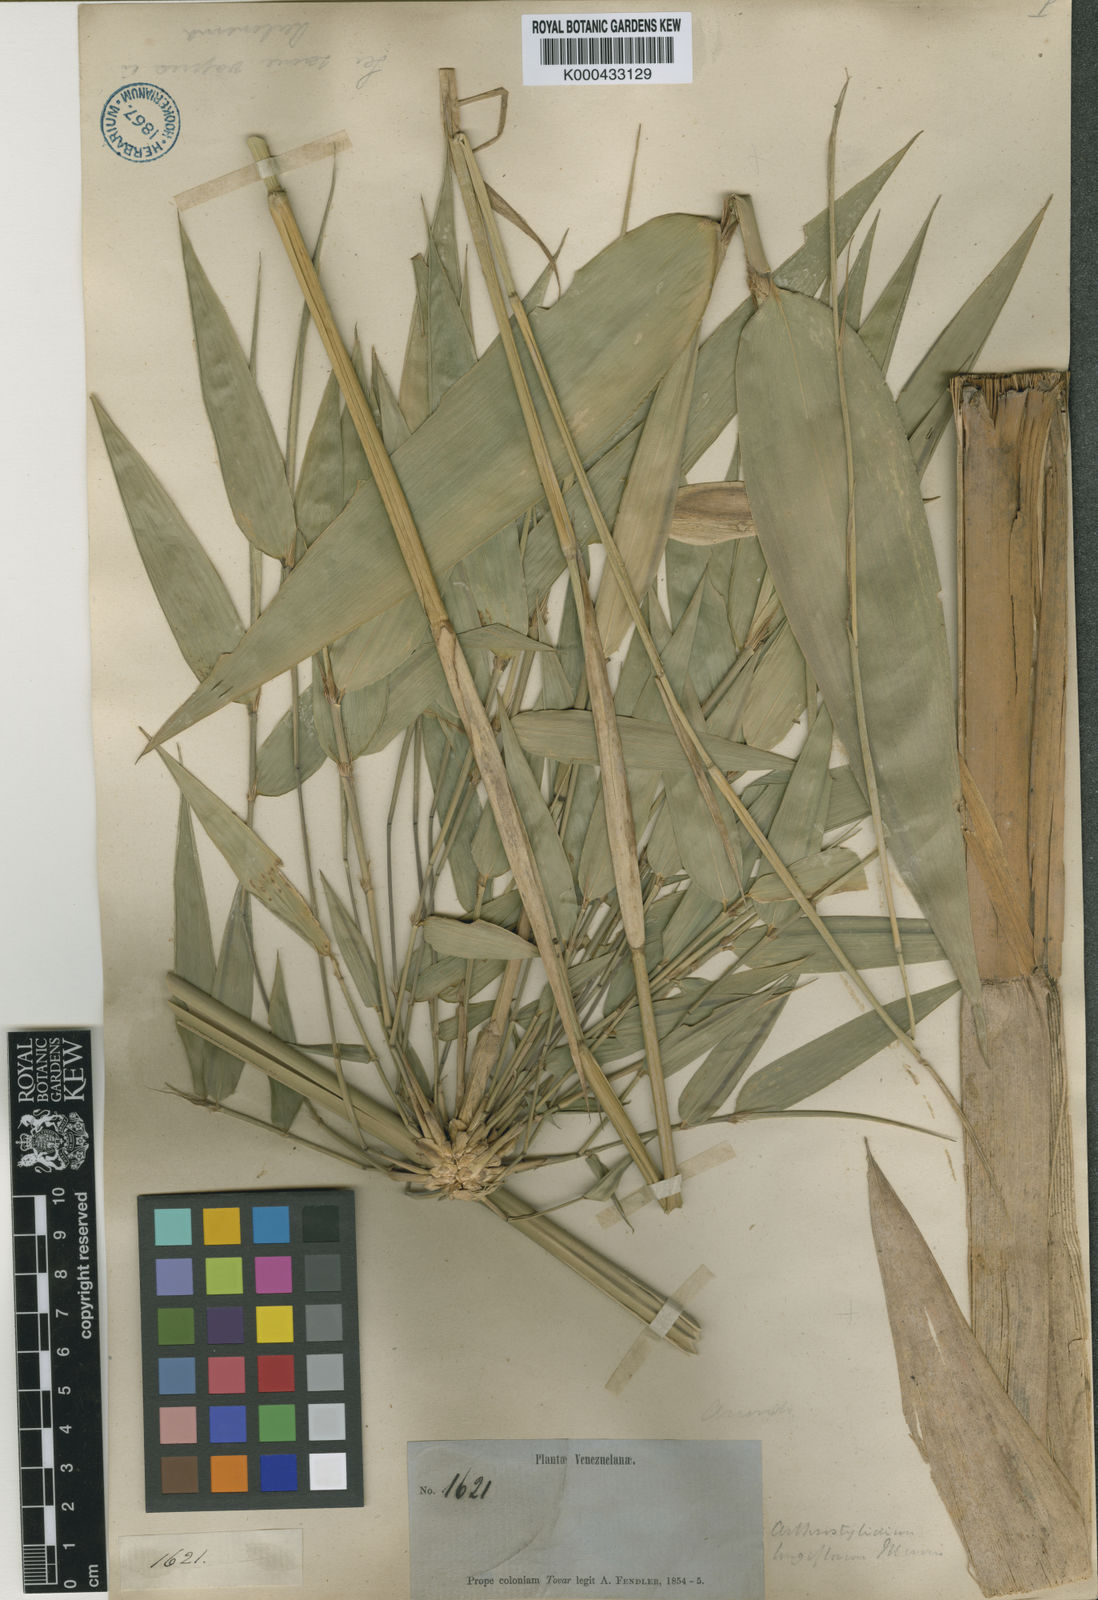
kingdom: Plantae
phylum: Tracheophyta
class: Liliopsida
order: Poales
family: Poaceae
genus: Arthrostylidium
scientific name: Arthrostylidium longiflorum
